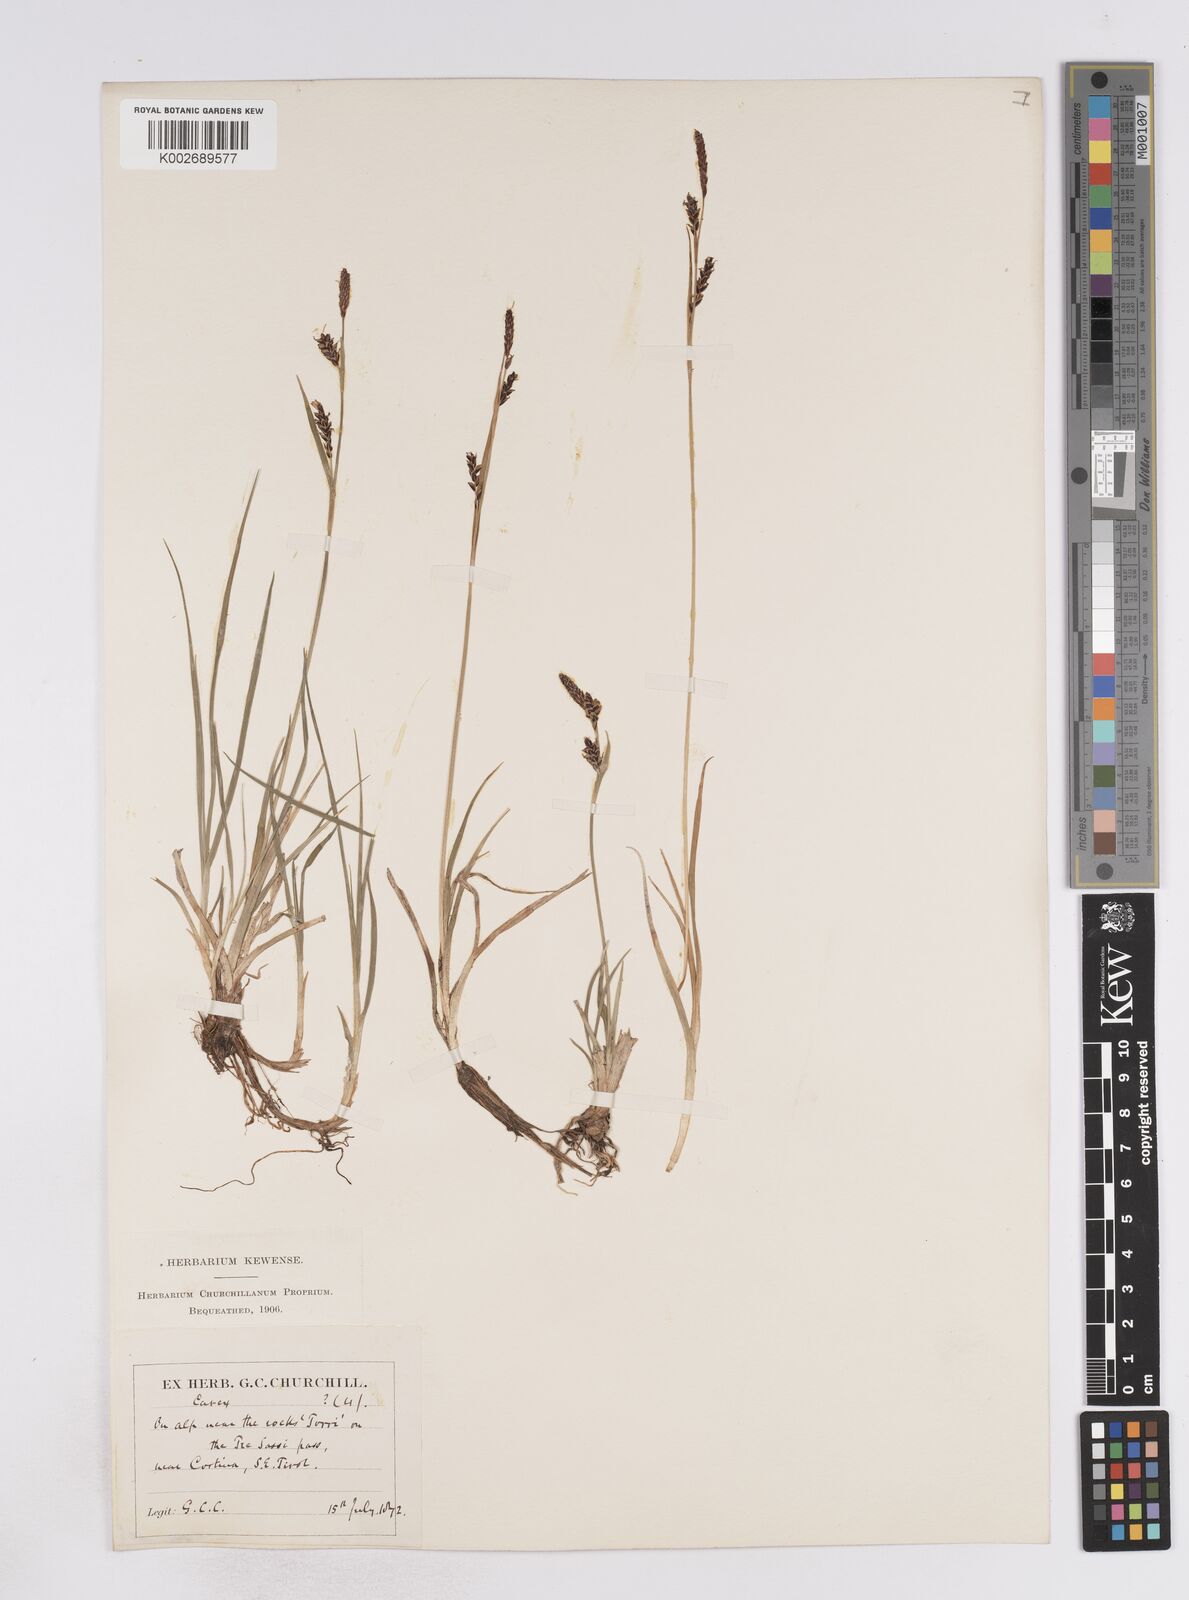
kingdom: Plantae
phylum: Tracheophyta
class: Liliopsida
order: Poales
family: Cyperaceae
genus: Carex
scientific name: Carex flacca
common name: Glaucous sedge
